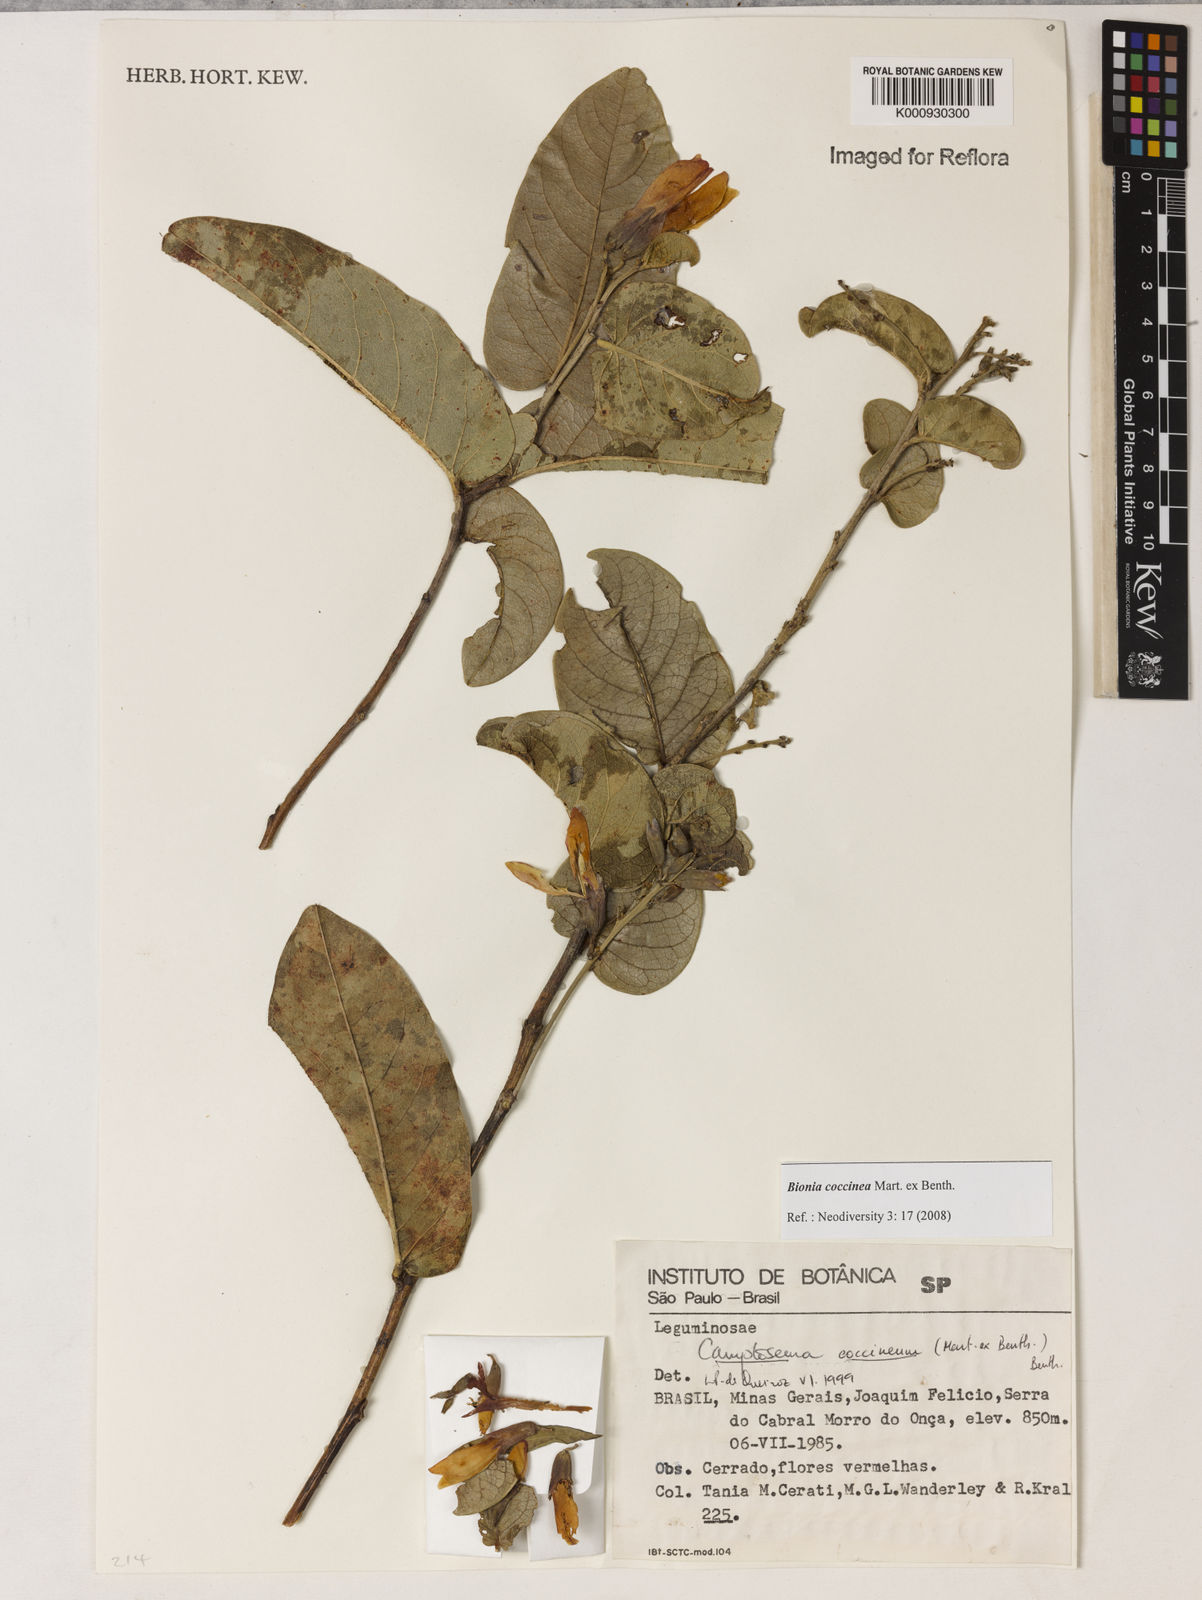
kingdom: Plantae
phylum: Tracheophyta
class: Magnoliopsida
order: Fabales
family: Fabaceae
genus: Camptosema
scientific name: Camptosema coccineum
